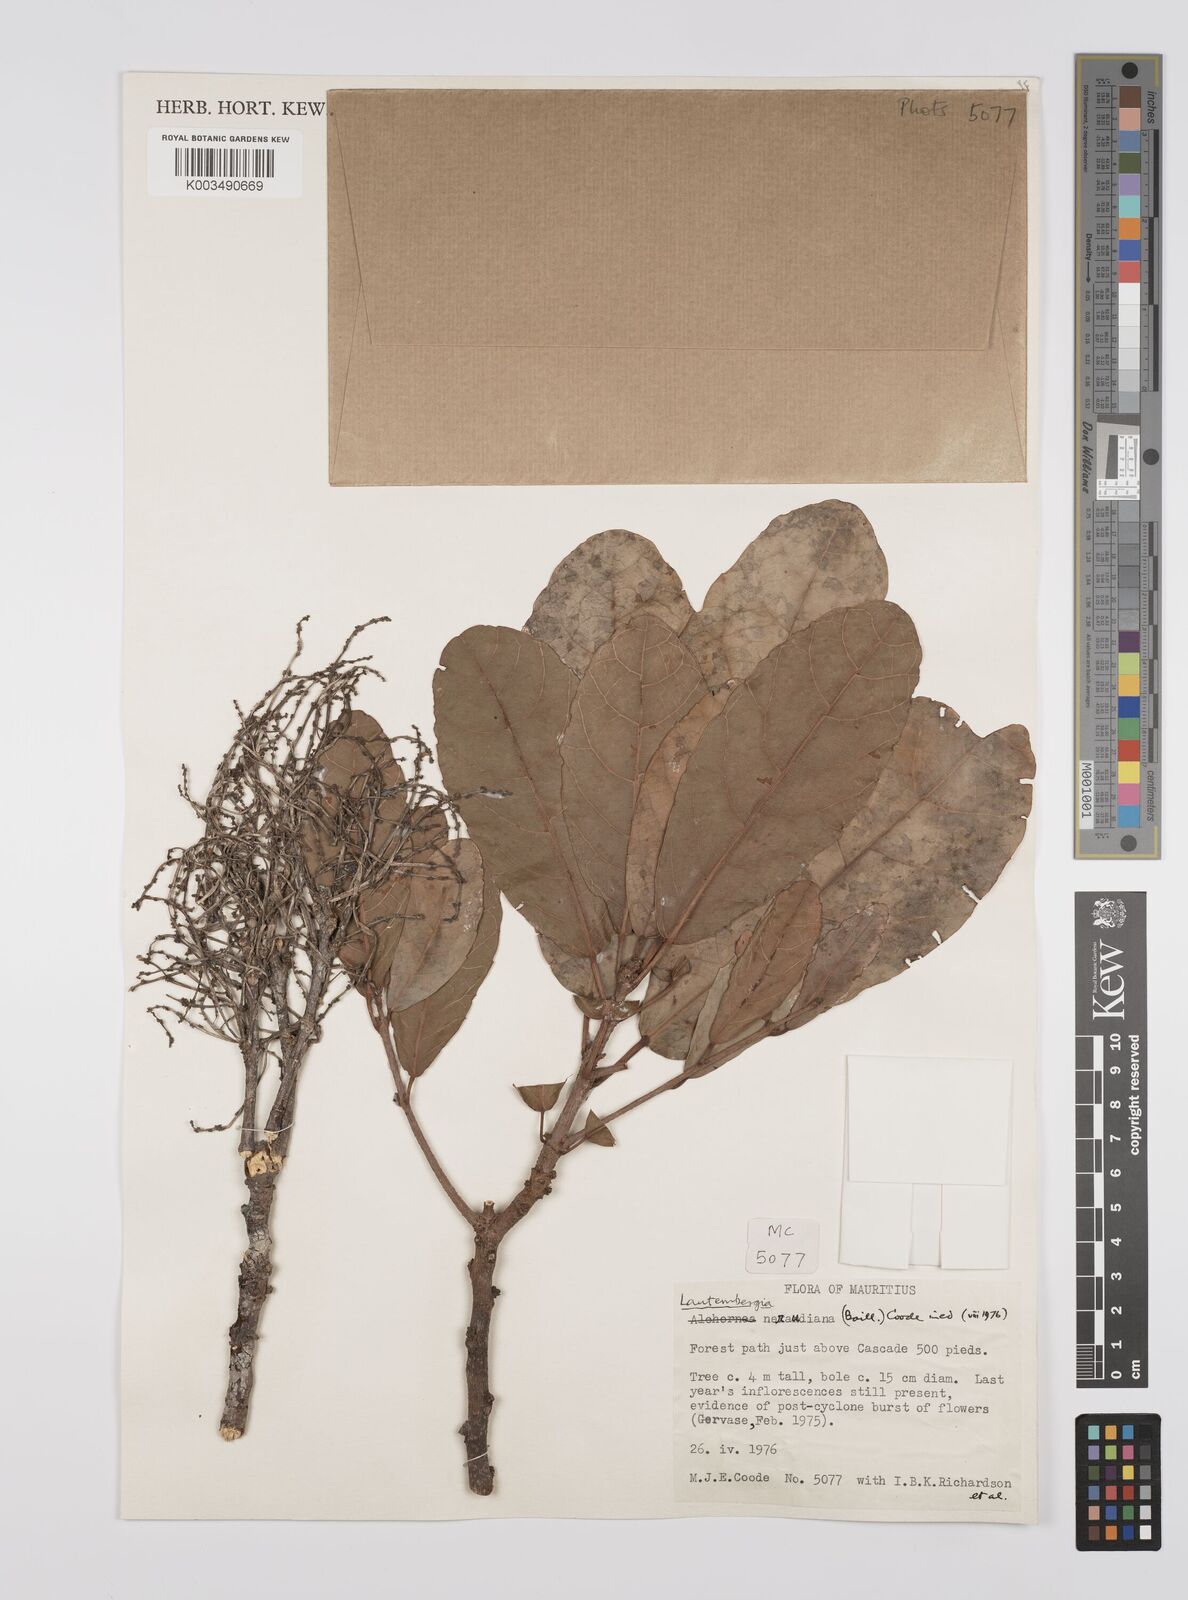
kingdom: Plantae
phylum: Tracheophyta
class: Magnoliopsida
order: Malpighiales
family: Euphorbiaceae
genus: Orfilea
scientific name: Orfilea neraudiana
